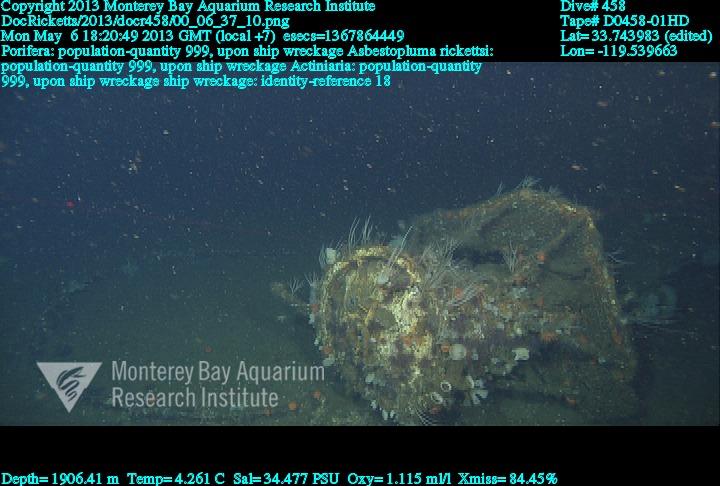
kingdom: Animalia
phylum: Porifera
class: Demospongiae
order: Poecilosclerida
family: Cladorhizidae
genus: Asbestopluma
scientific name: Asbestopluma rickettsi
